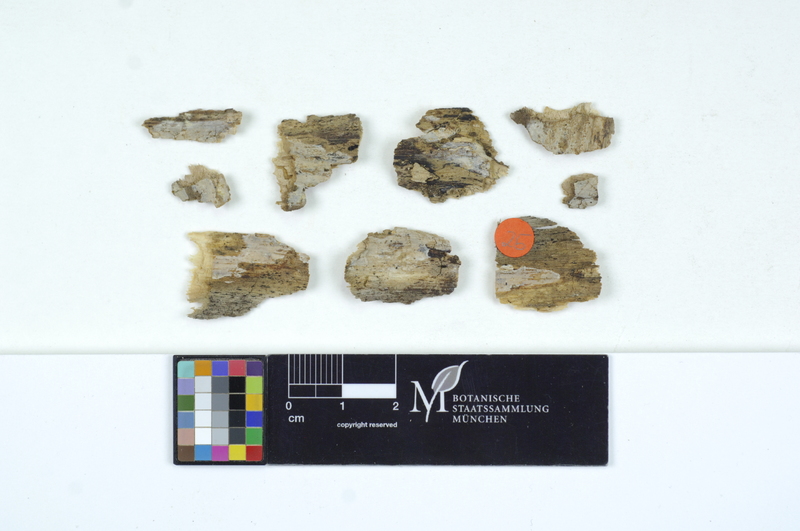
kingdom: Fungi
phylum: Basidiomycota
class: Agaricomycetes
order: Auriculariales
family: Auriculariaceae
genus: Exidiopsis
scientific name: Exidiopsis effusa
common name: Hair ice crust
